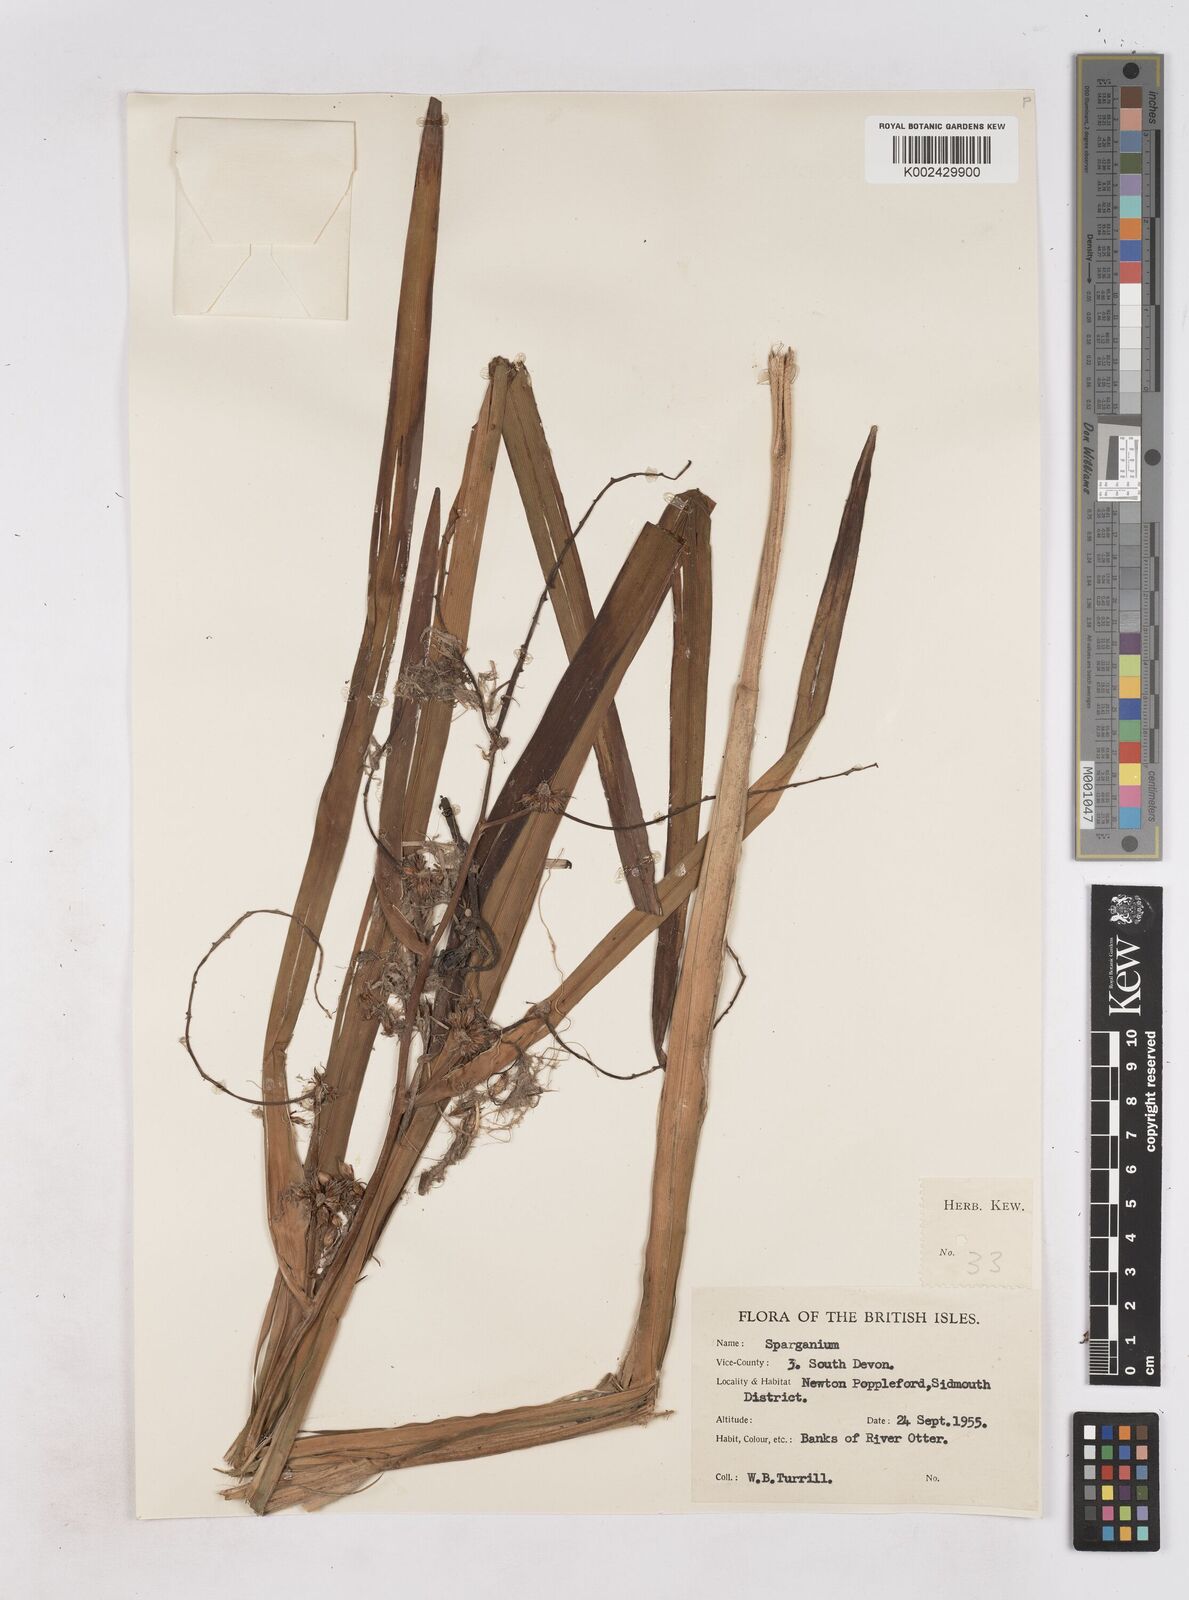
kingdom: Plantae
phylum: Tracheophyta
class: Liliopsida
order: Poales
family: Typhaceae
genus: Sparganium
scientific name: Sparganium erectum
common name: Branched bur-reed
